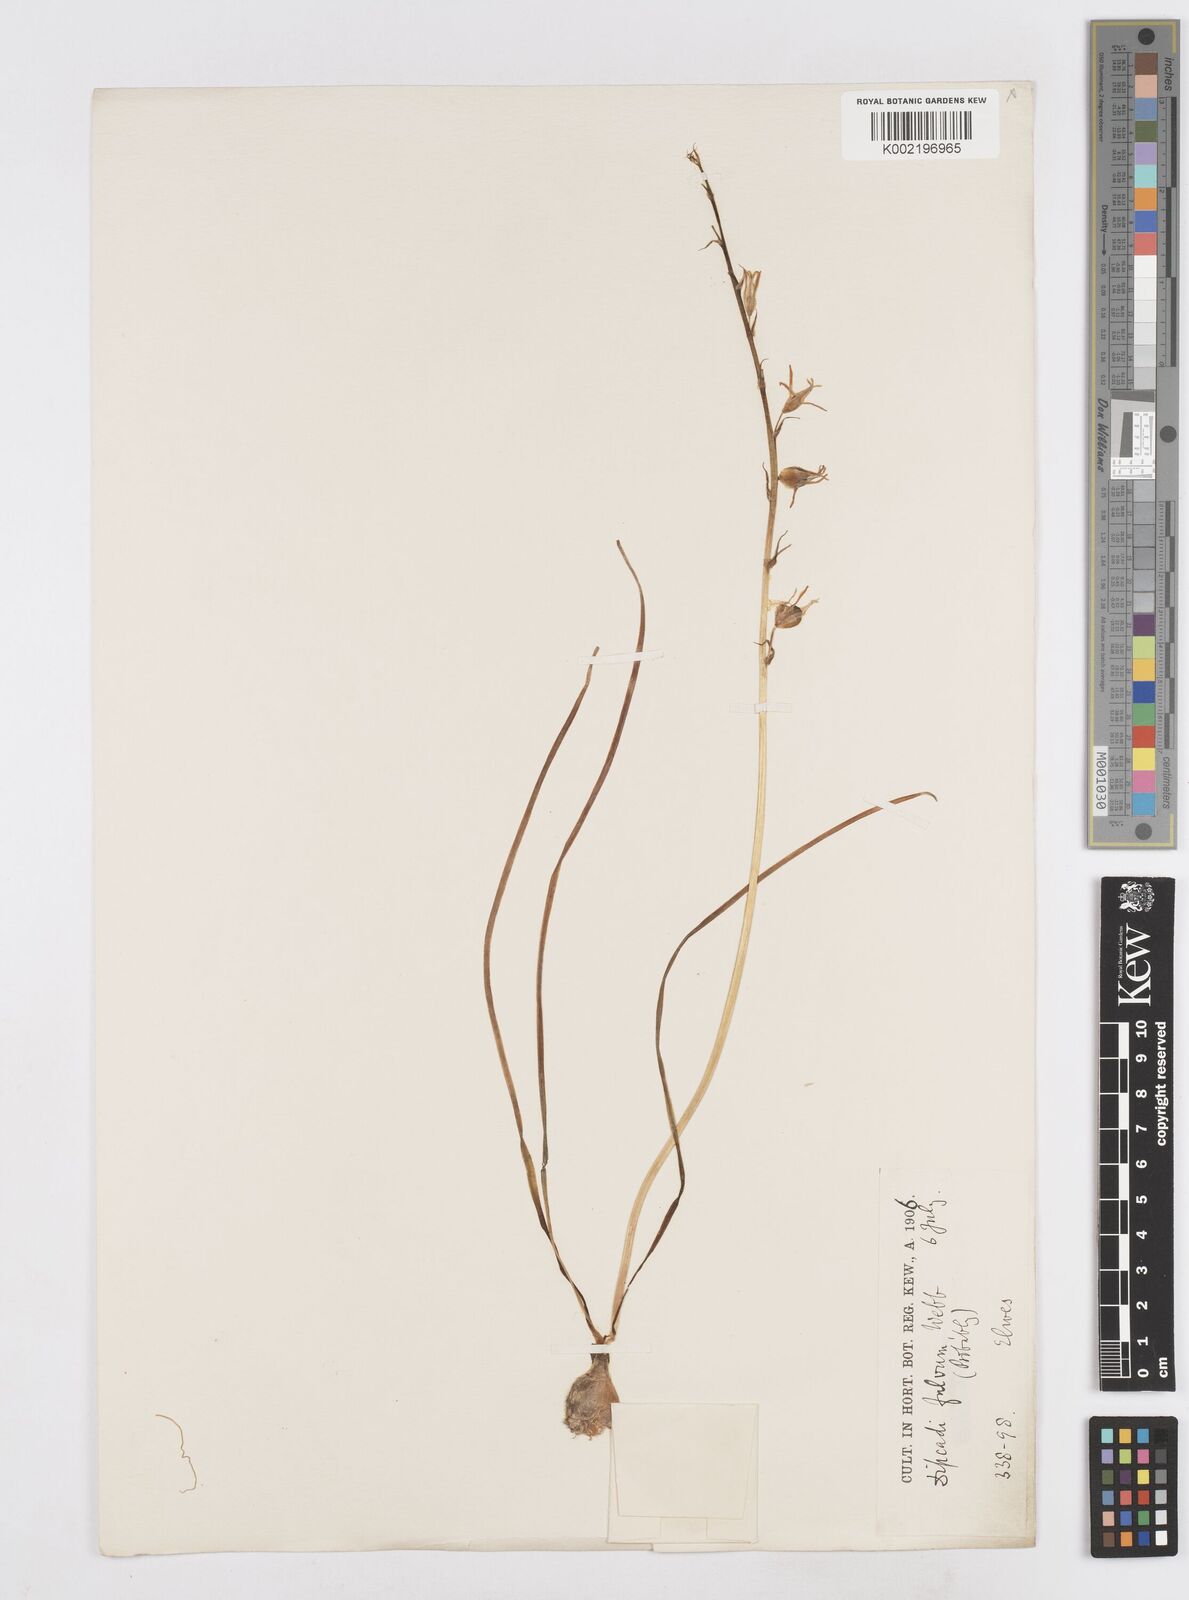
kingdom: Plantae
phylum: Tracheophyta
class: Liliopsida
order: Asparagales
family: Asparagaceae
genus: Dipcadi
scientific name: Dipcadi serotinum
